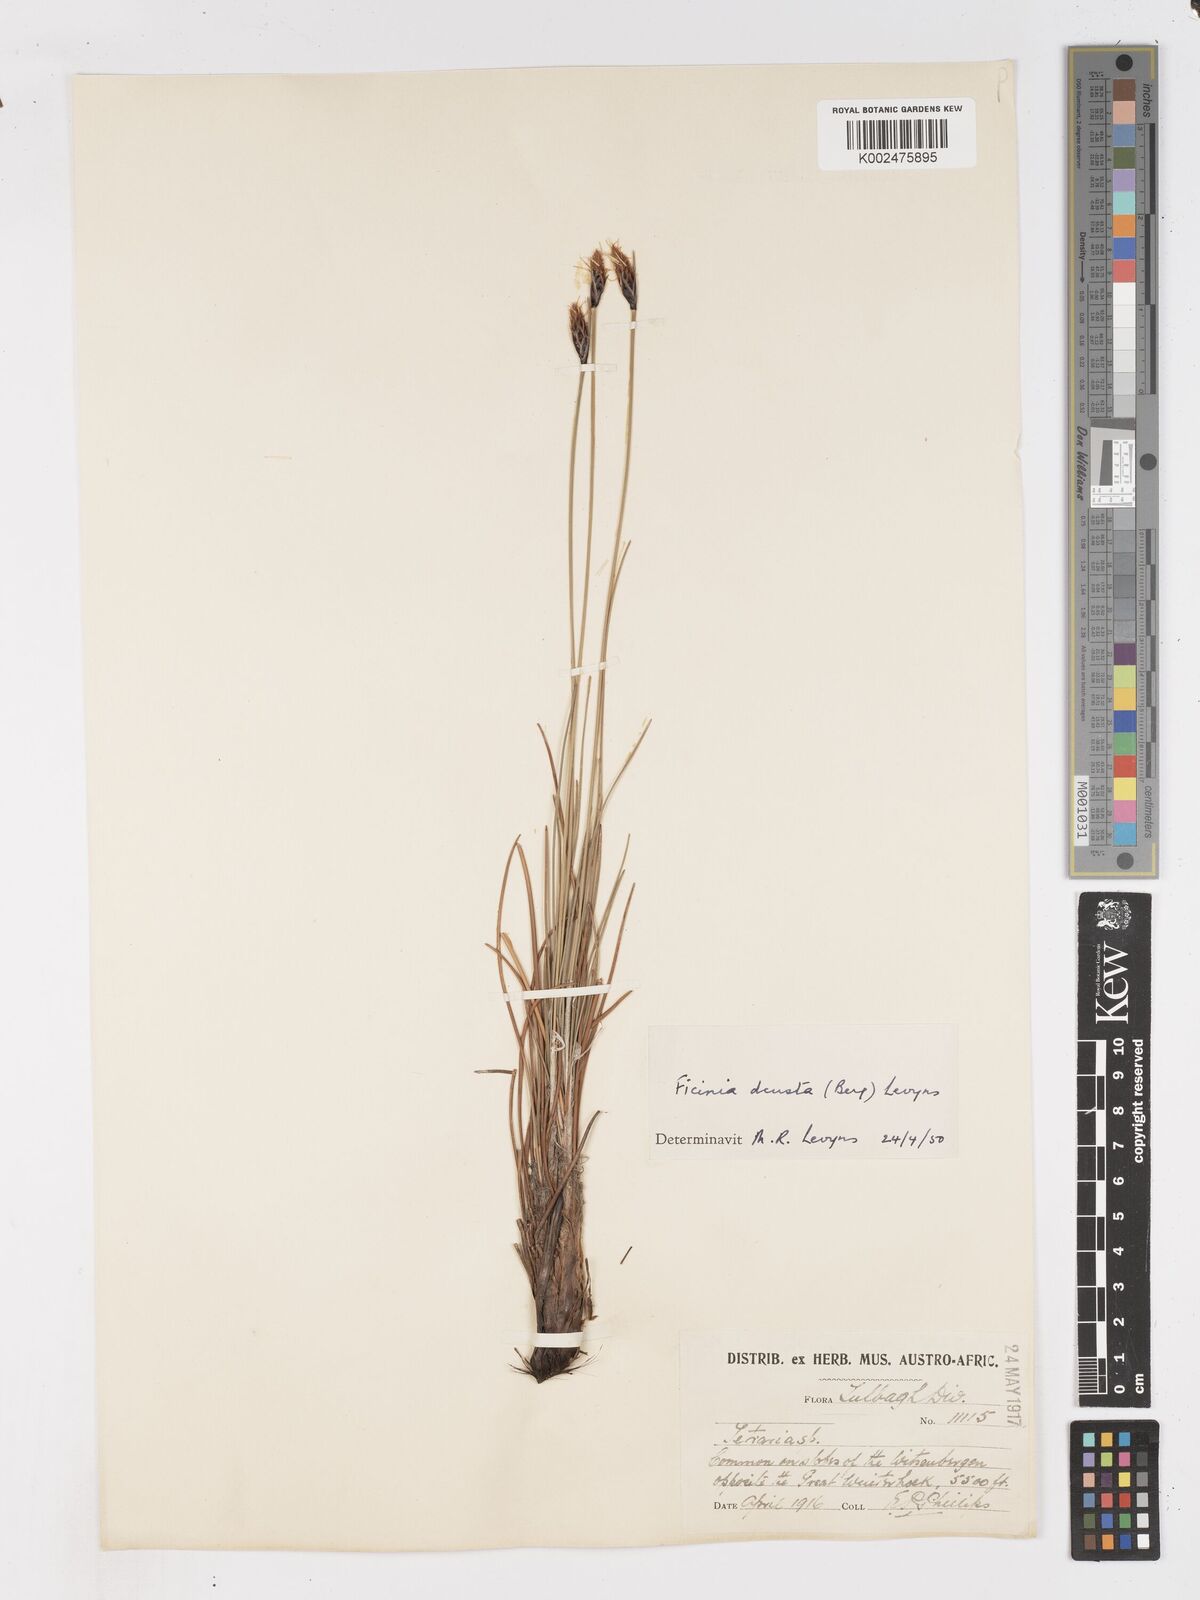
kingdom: Plantae
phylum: Tracheophyta
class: Liliopsida
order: Poales
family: Cyperaceae
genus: Ficinia
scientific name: Ficinia deusta
